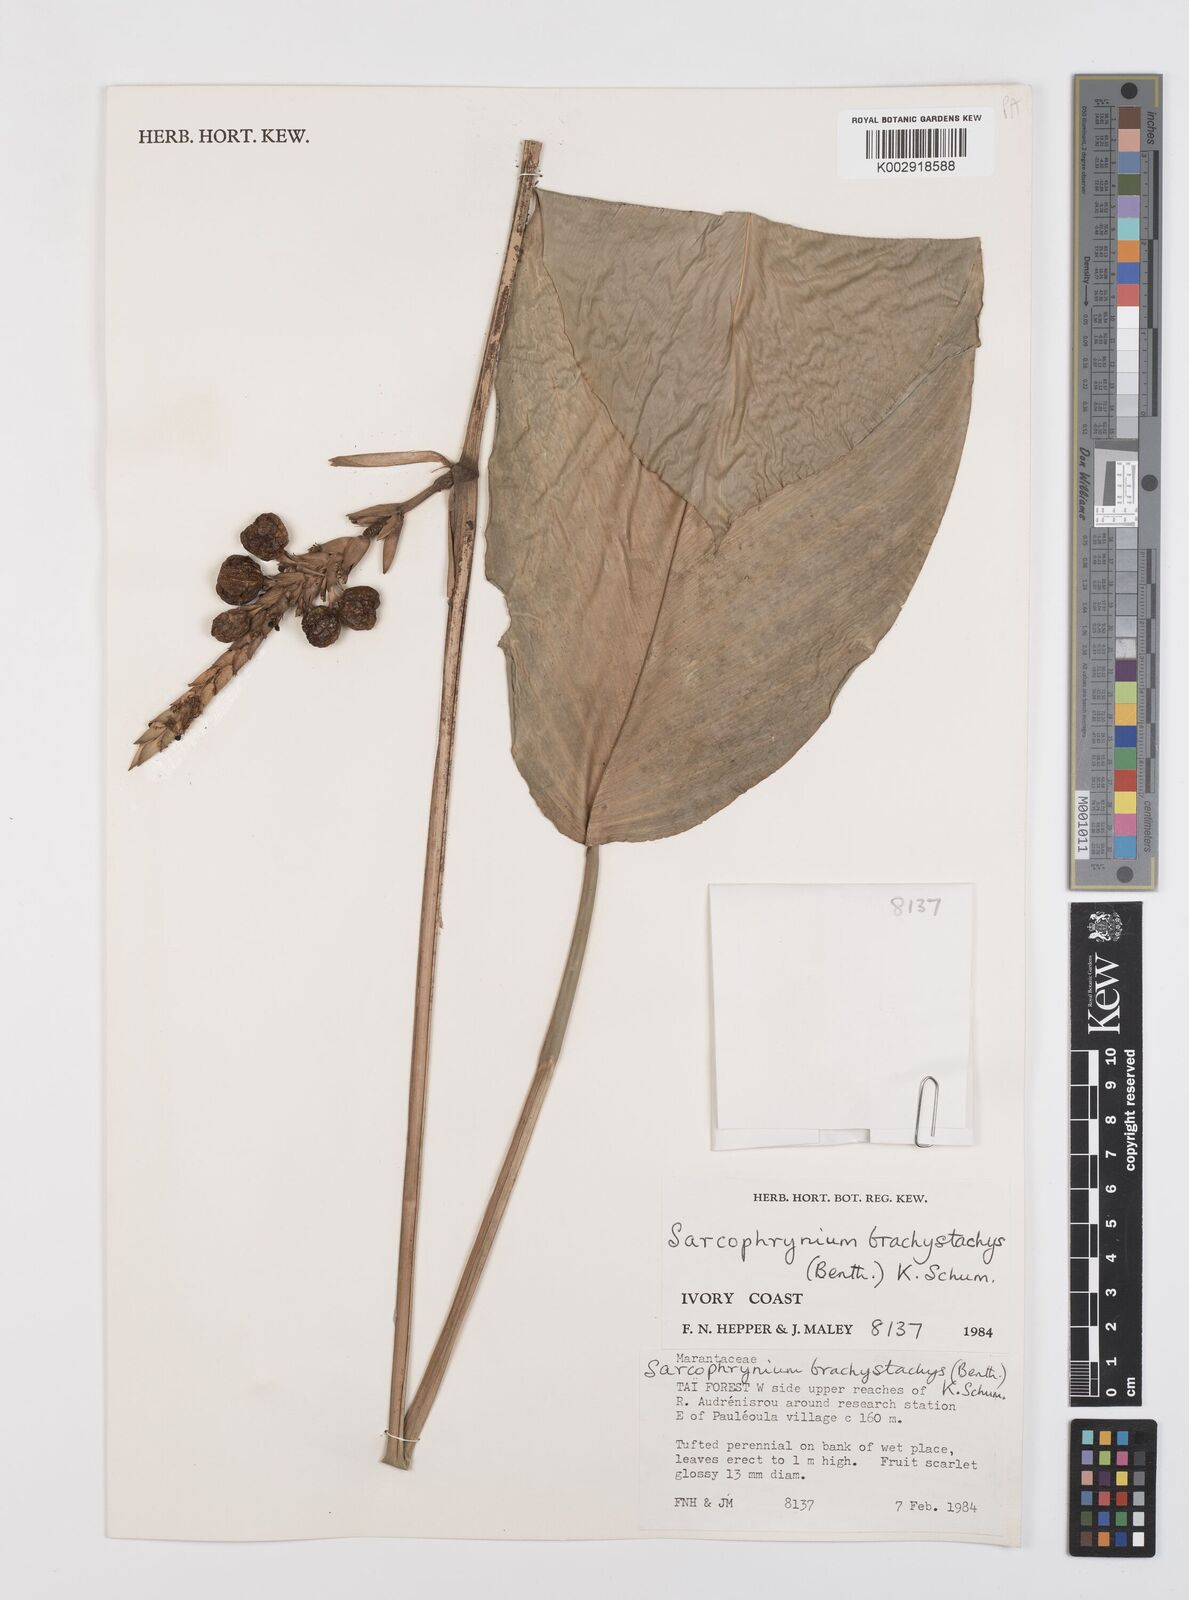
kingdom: Plantae
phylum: Tracheophyta
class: Liliopsida
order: Zingiberales
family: Marantaceae
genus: Sarcophrynium
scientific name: Sarcophrynium brachystachyum
